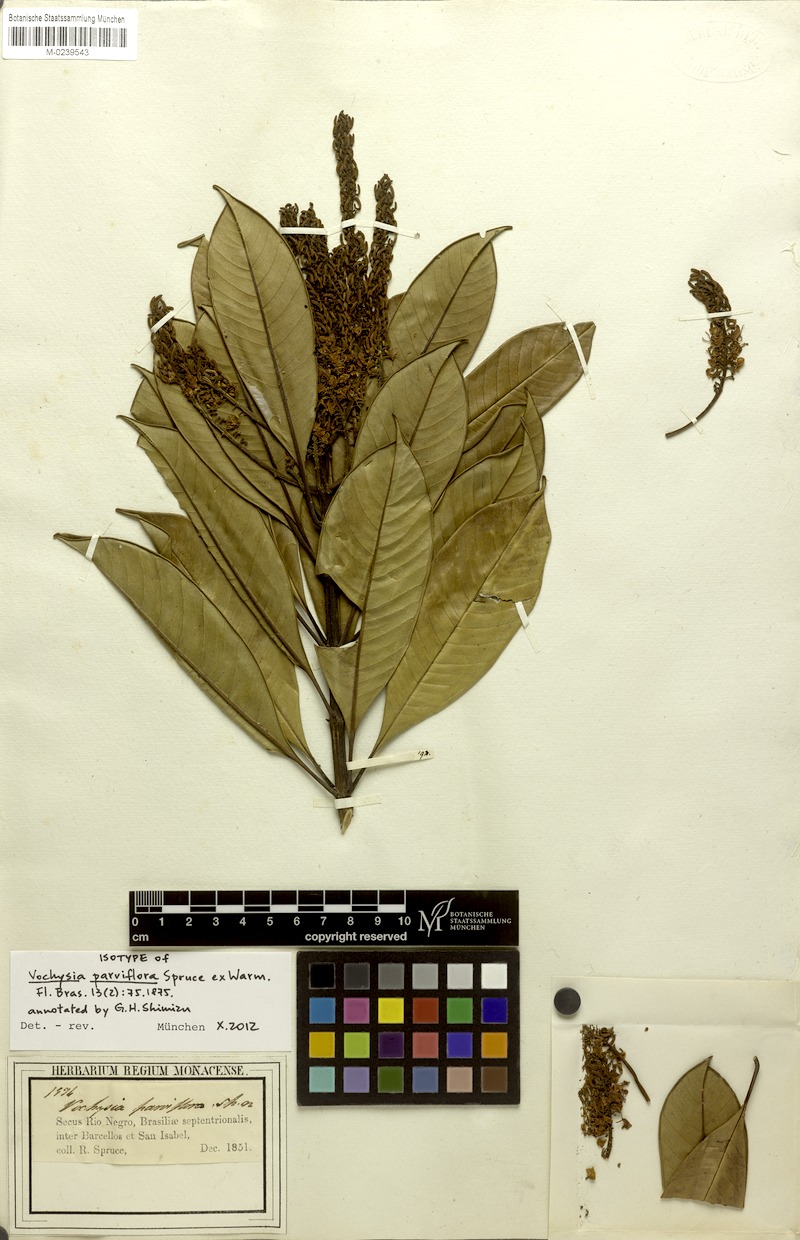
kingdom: Plantae
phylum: Tracheophyta
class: Magnoliopsida
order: Myrtales
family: Vochysiaceae
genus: Vochysia
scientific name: Vochysia parviflora
